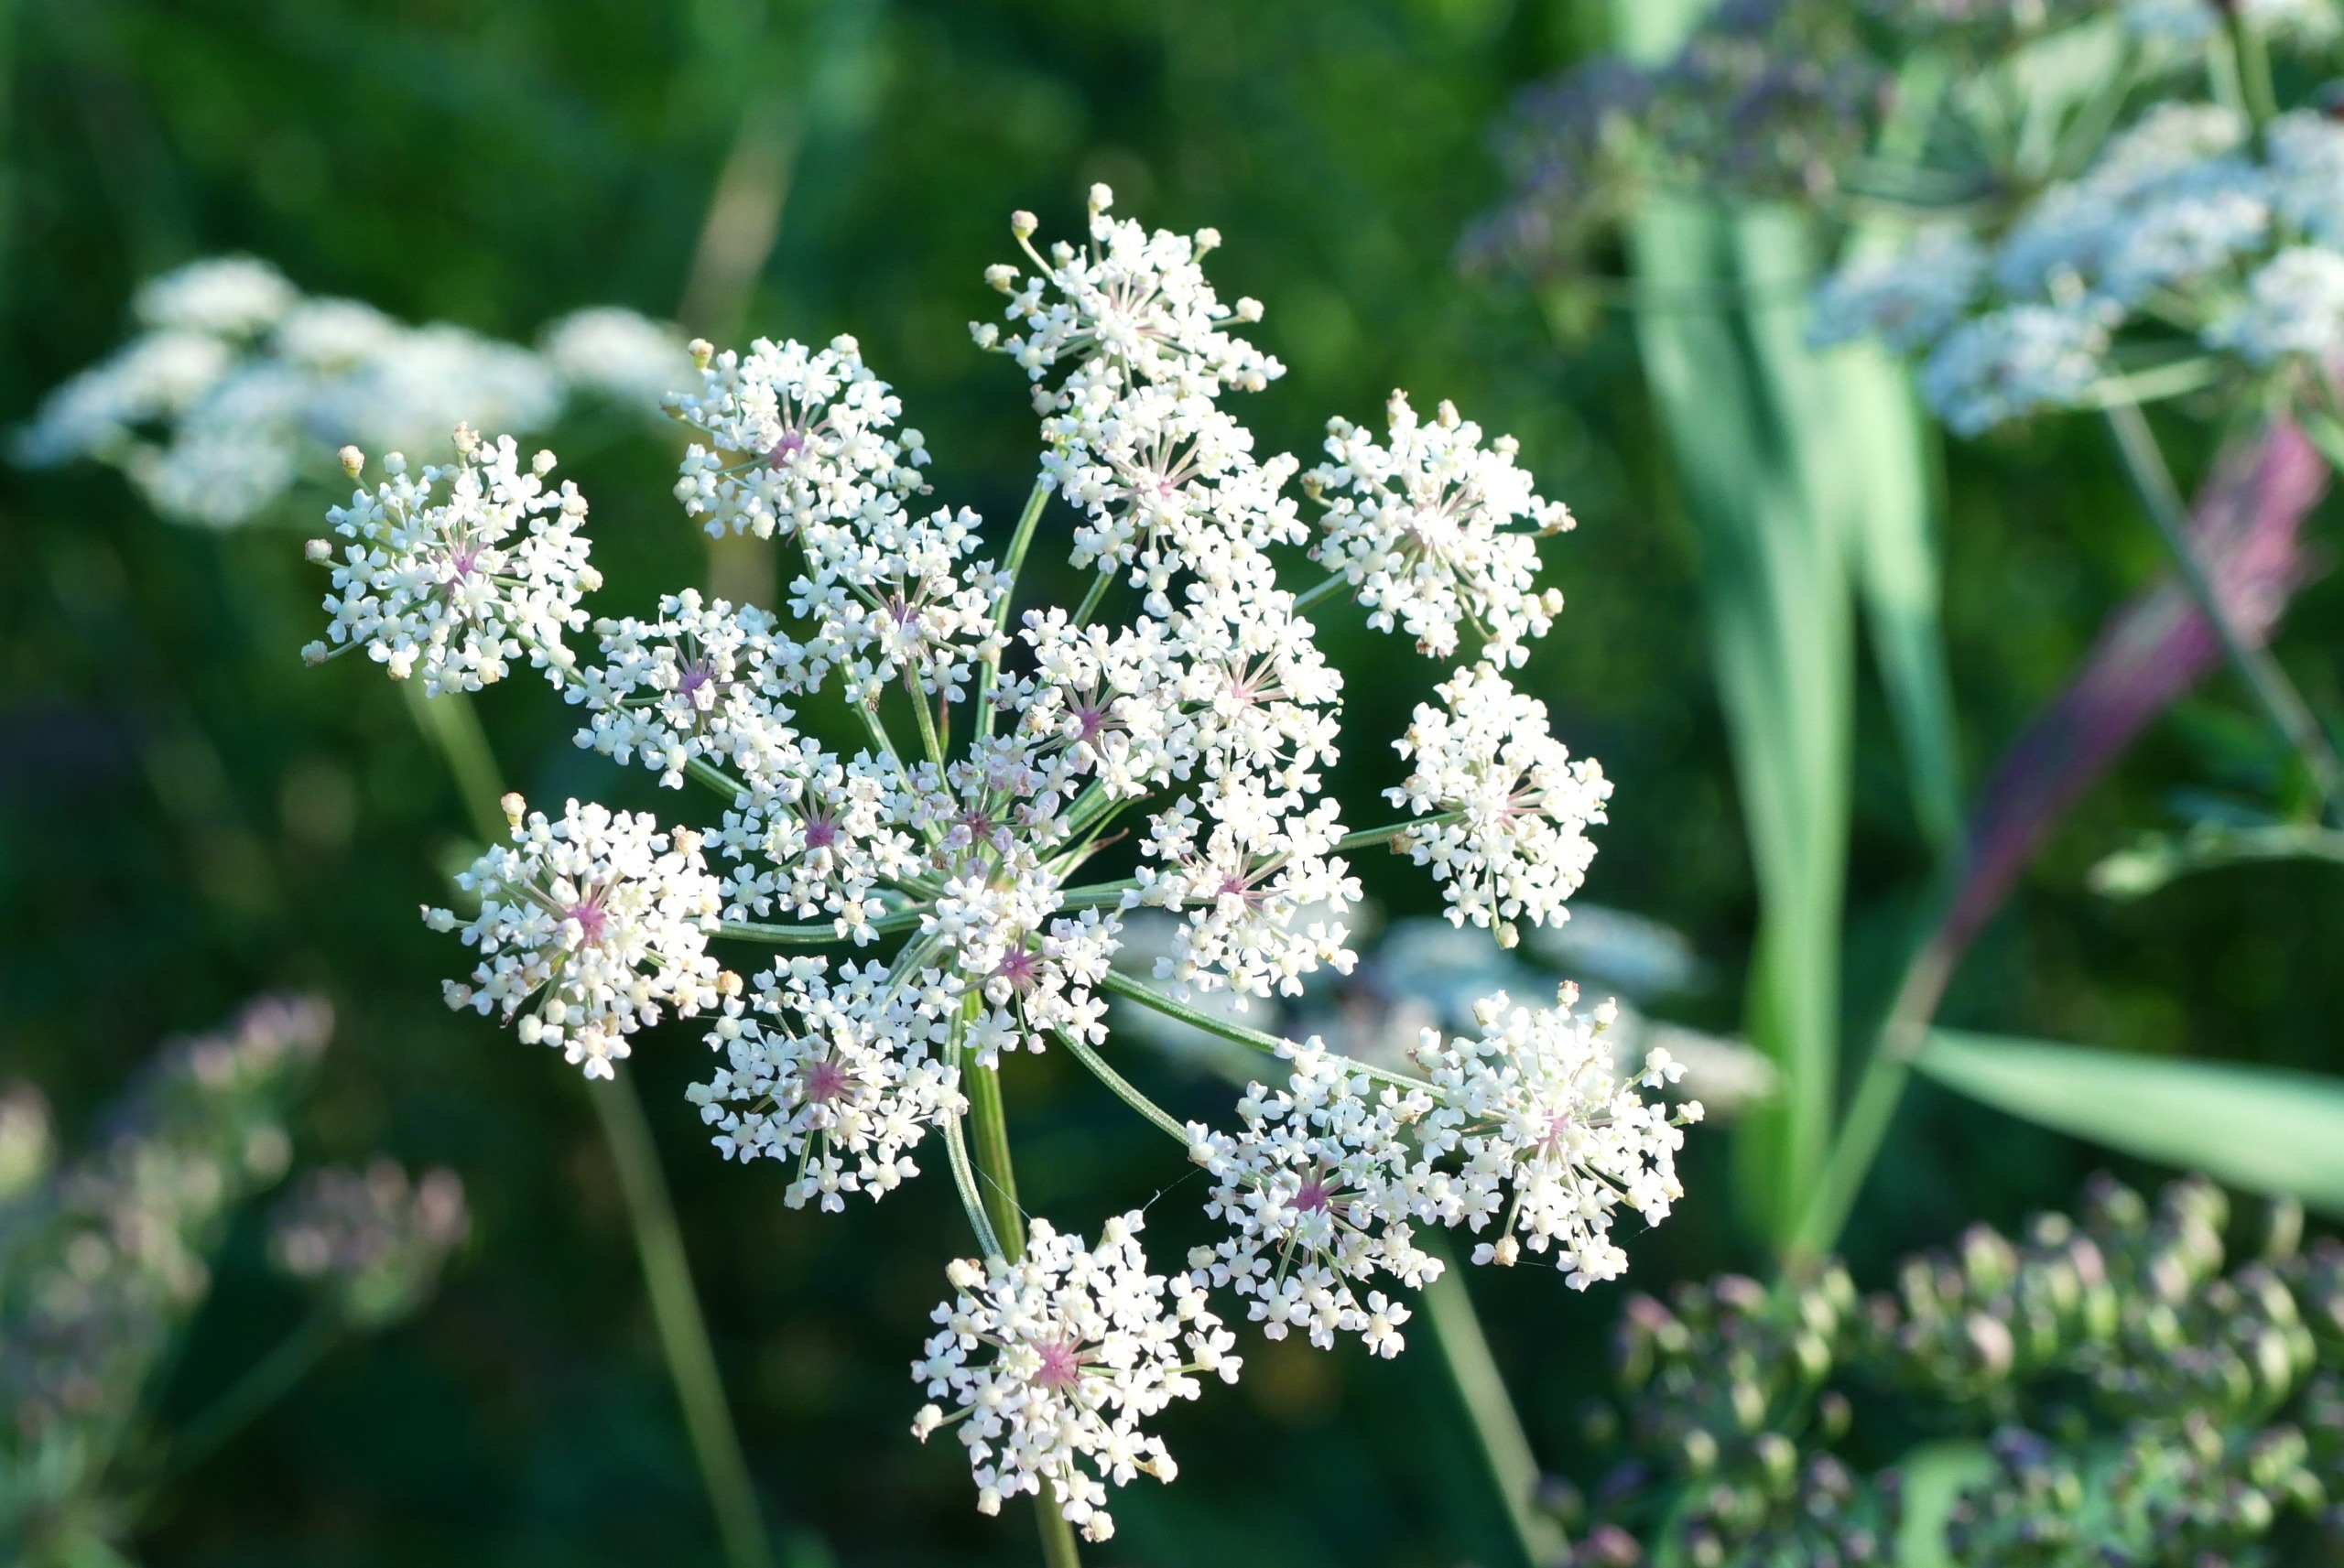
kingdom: Plantae
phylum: Tracheophyta
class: Magnoliopsida
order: Apiales
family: Apiaceae
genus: Thysselinum
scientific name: Thysselinum palustre
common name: Kær-svovlrod
